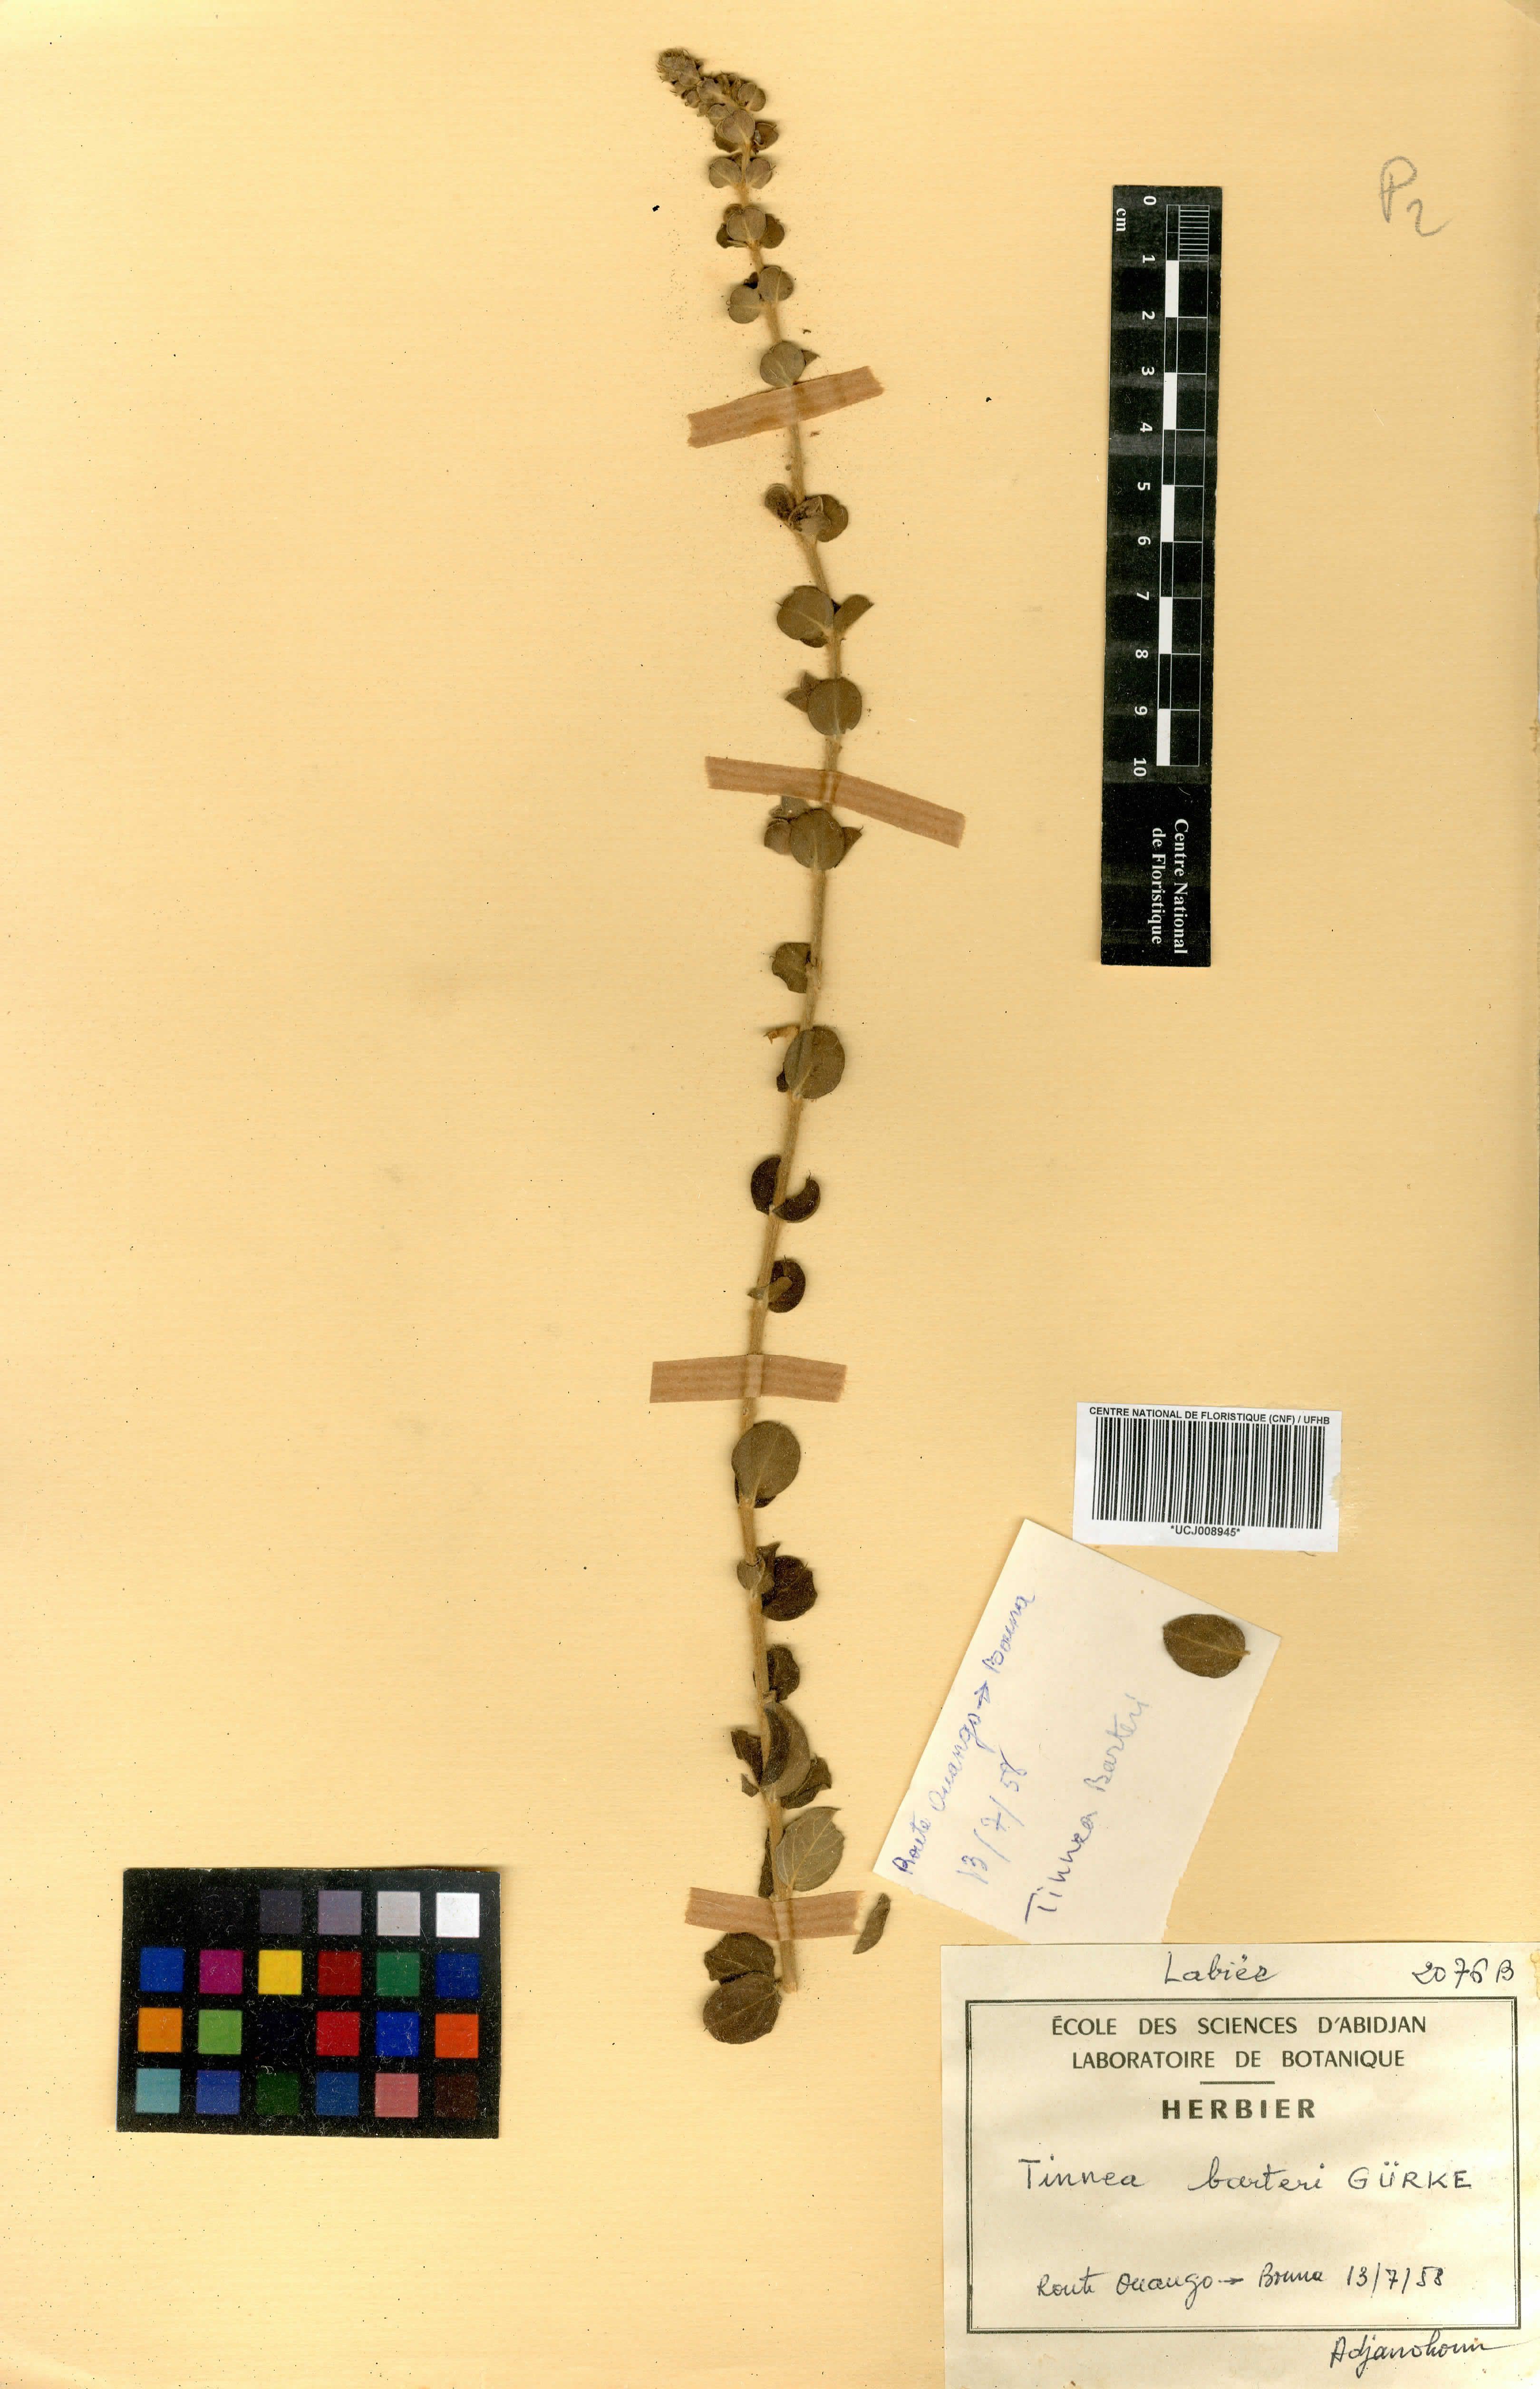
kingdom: Plantae
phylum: Tracheophyta
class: Magnoliopsida
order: Lamiales
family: Lamiaceae
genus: Tinnea
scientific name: Tinnea barteri
